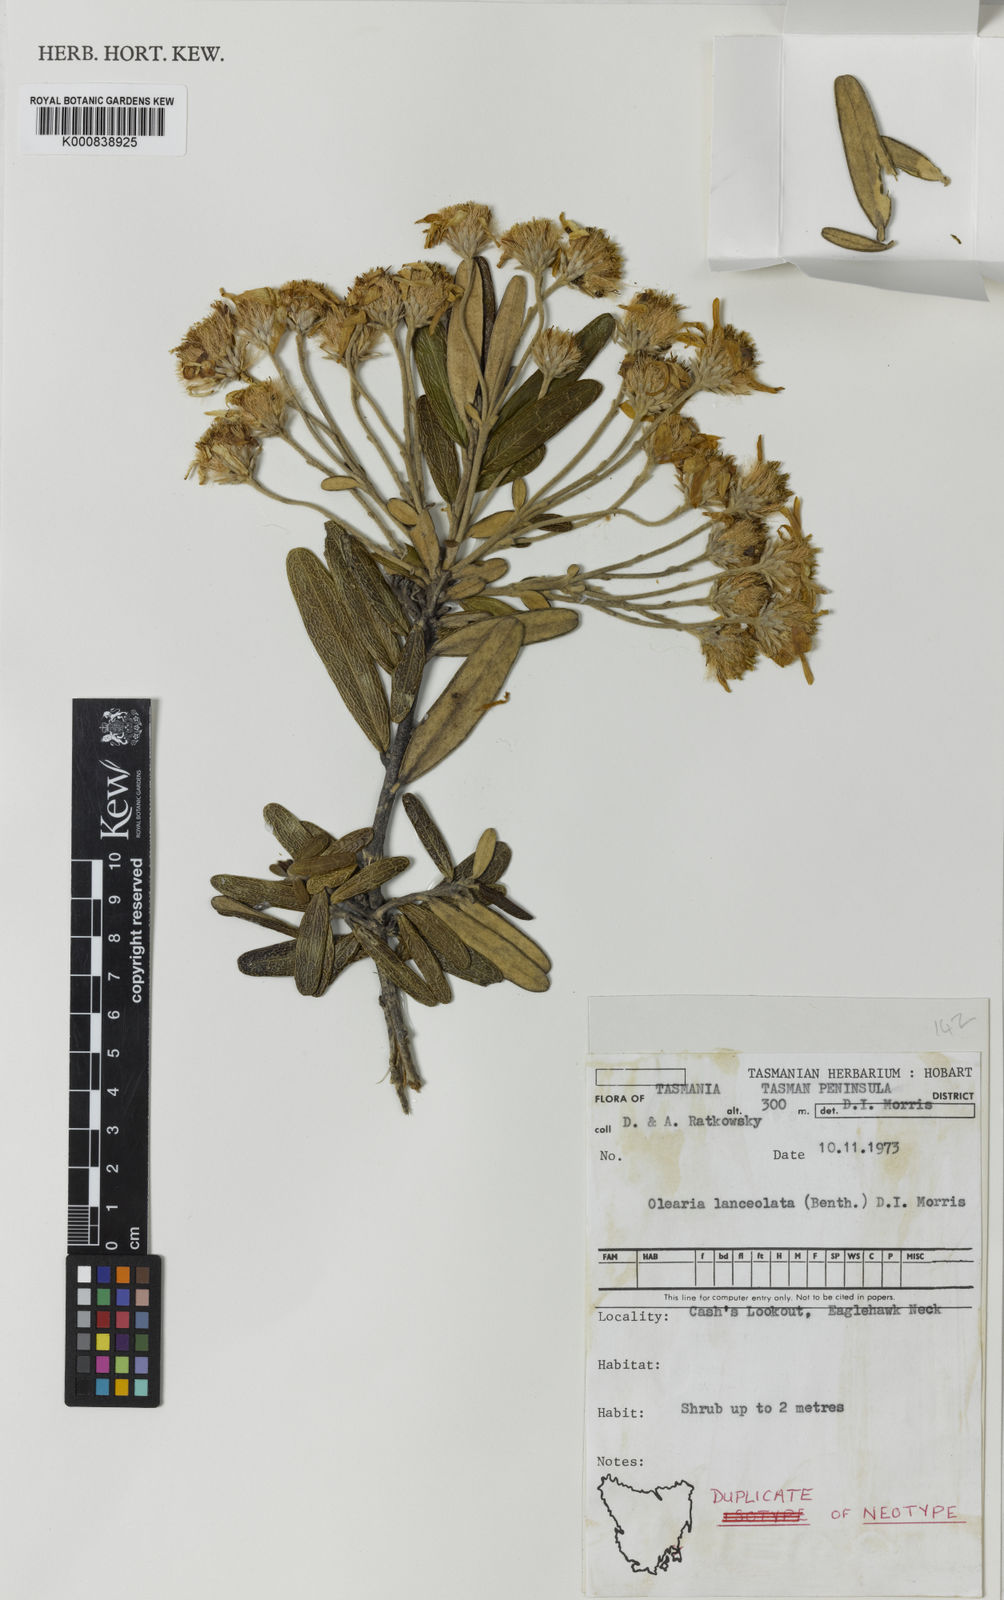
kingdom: Plantae
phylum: Tracheophyta
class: Magnoliopsida
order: Asterales
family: Asteraceae
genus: Olearia
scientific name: Olearia persoonioides
